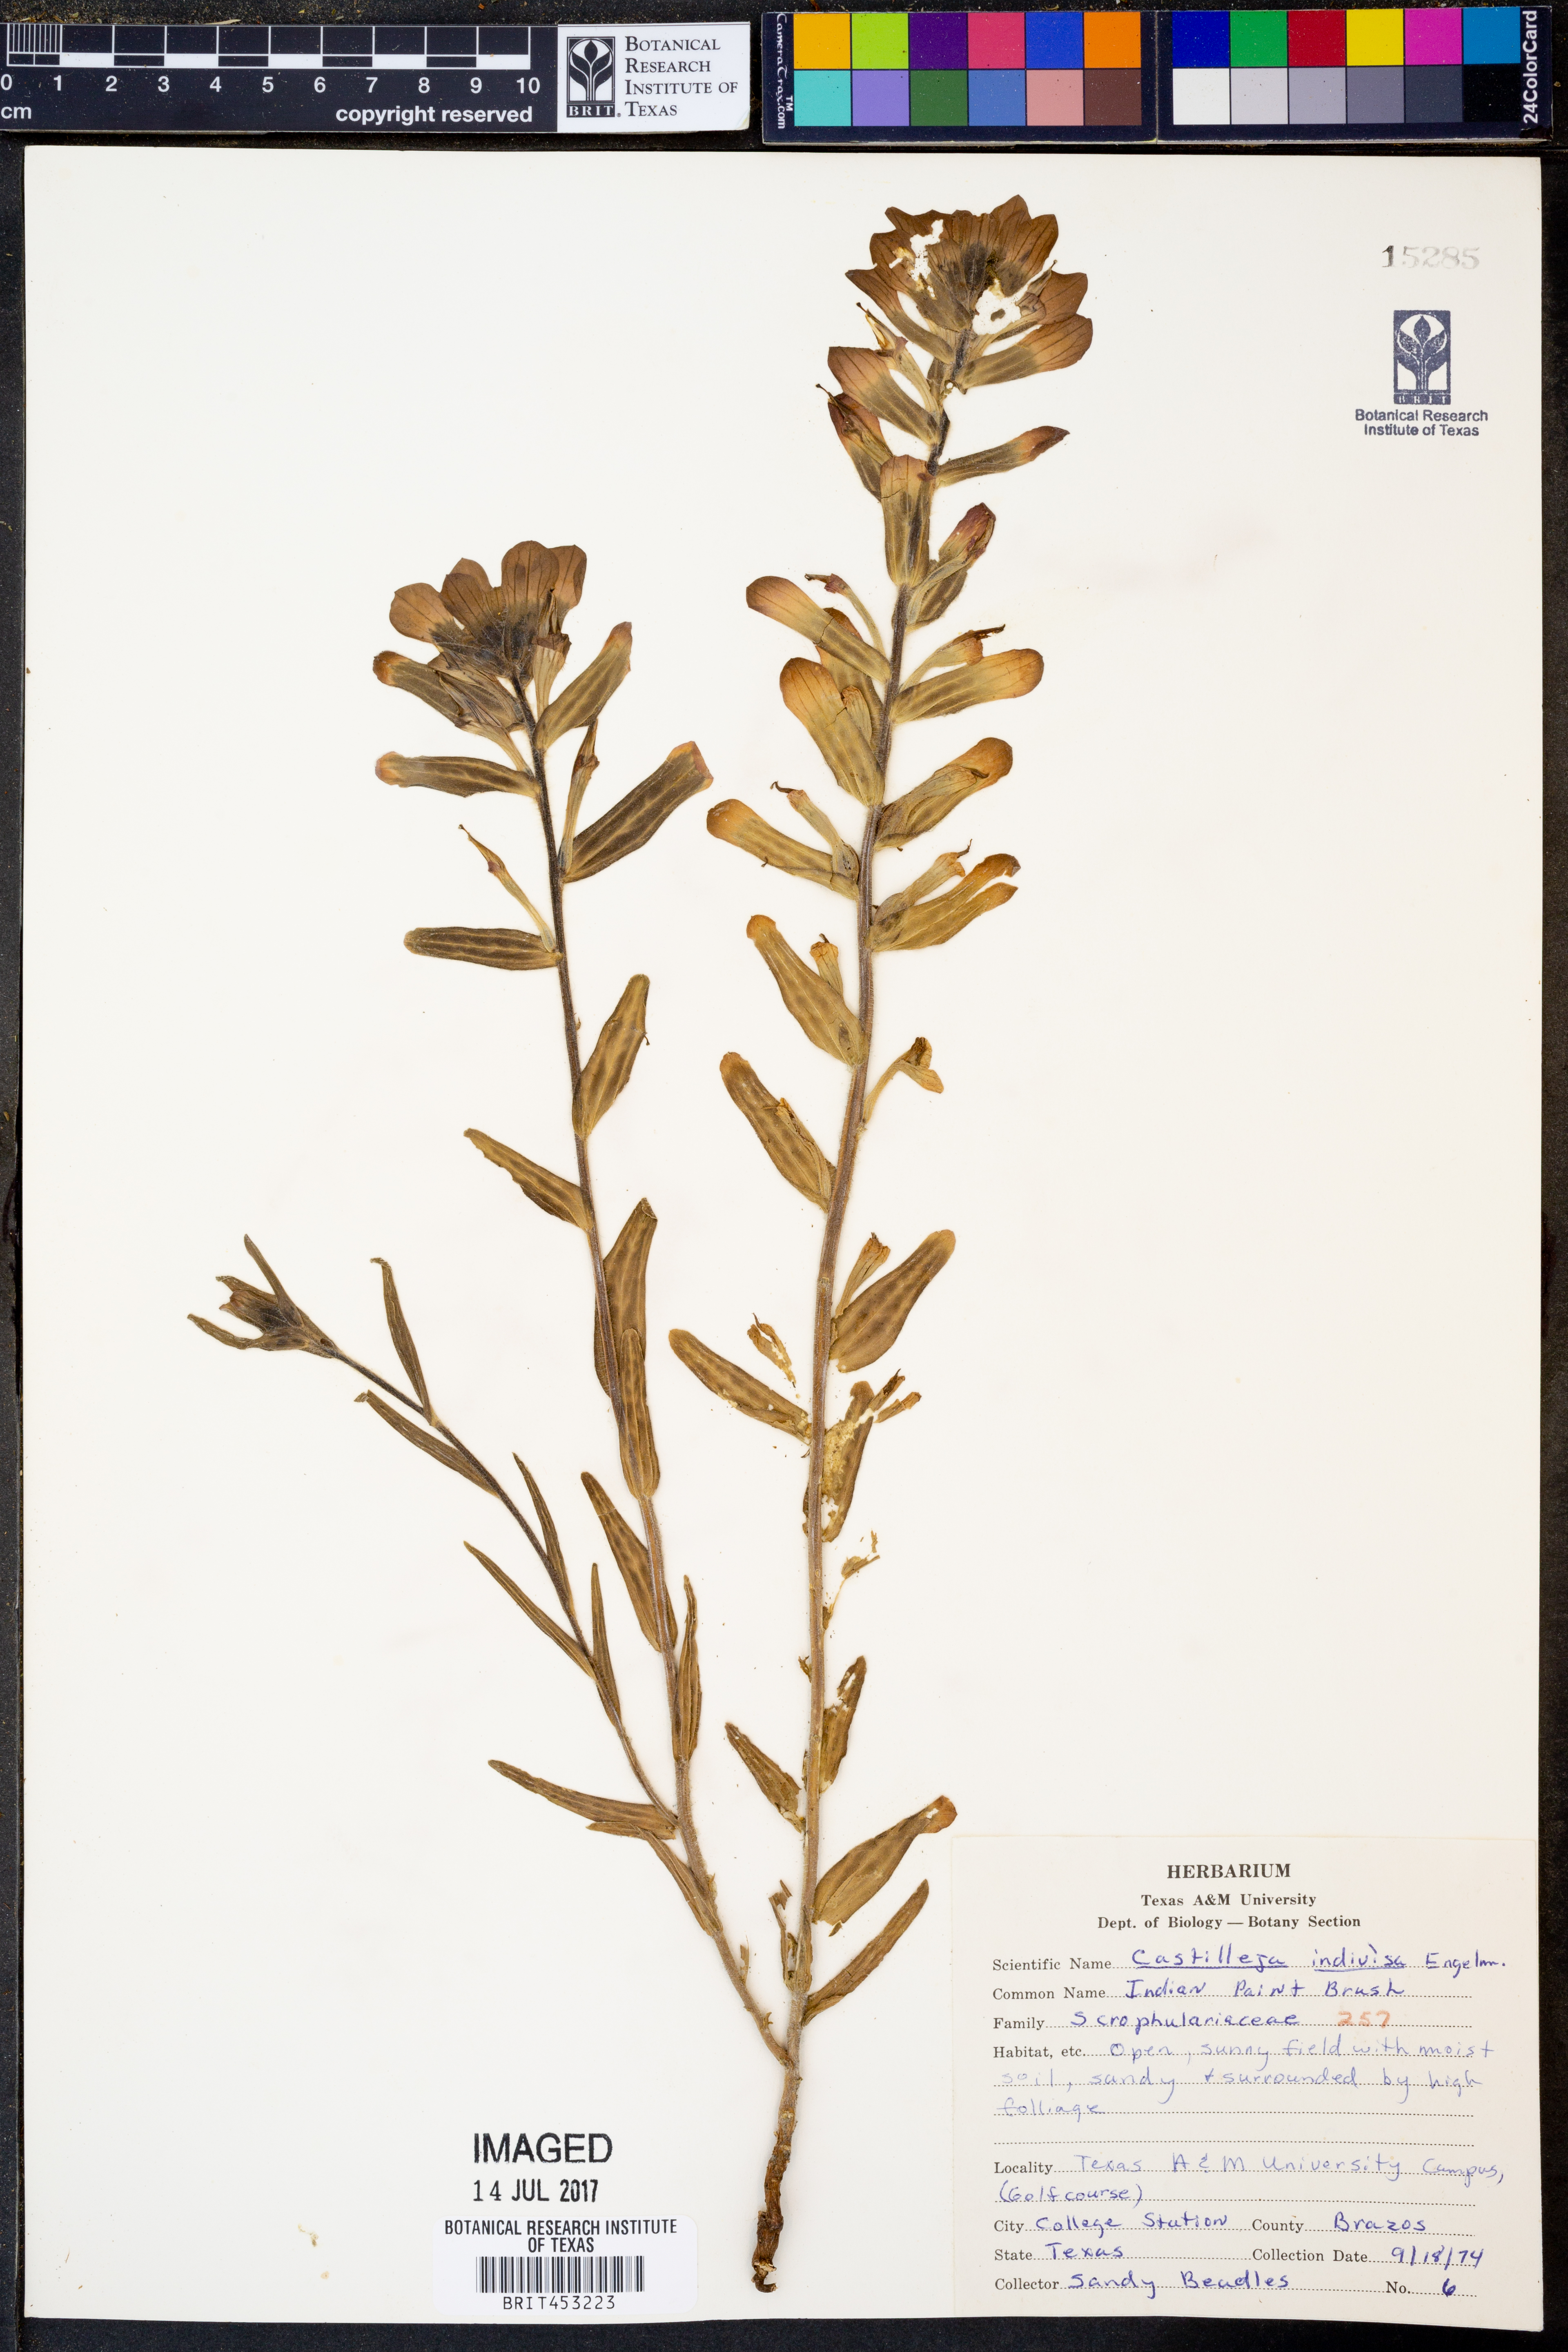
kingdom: Plantae
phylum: Tracheophyta
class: Magnoliopsida
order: Lamiales
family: Orobanchaceae
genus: Castilleja
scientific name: Castilleja indivisa
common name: Texas paintbrush
